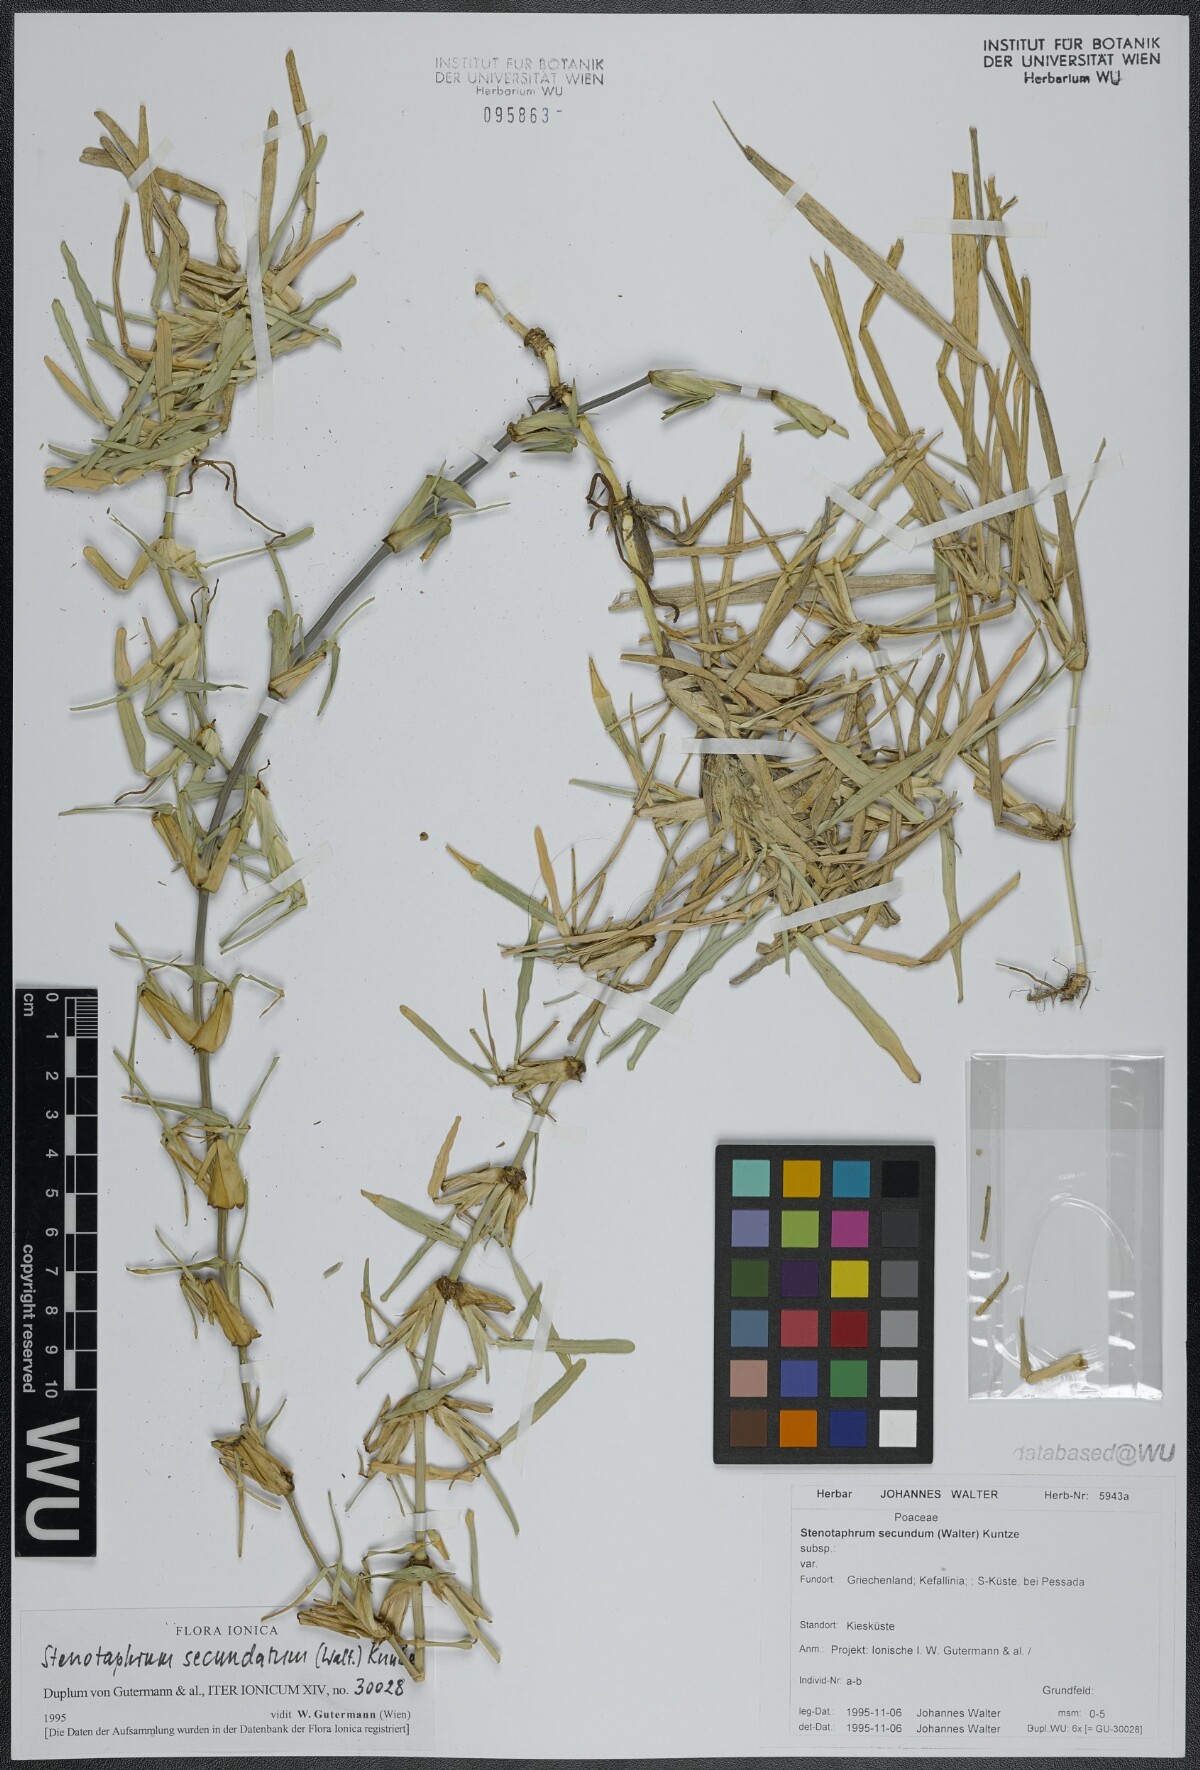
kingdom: Plantae
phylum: Tracheophyta
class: Liliopsida
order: Poales
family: Poaceae
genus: Stenotaphrum
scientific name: Stenotaphrum secundatum
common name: St. augustine grass
